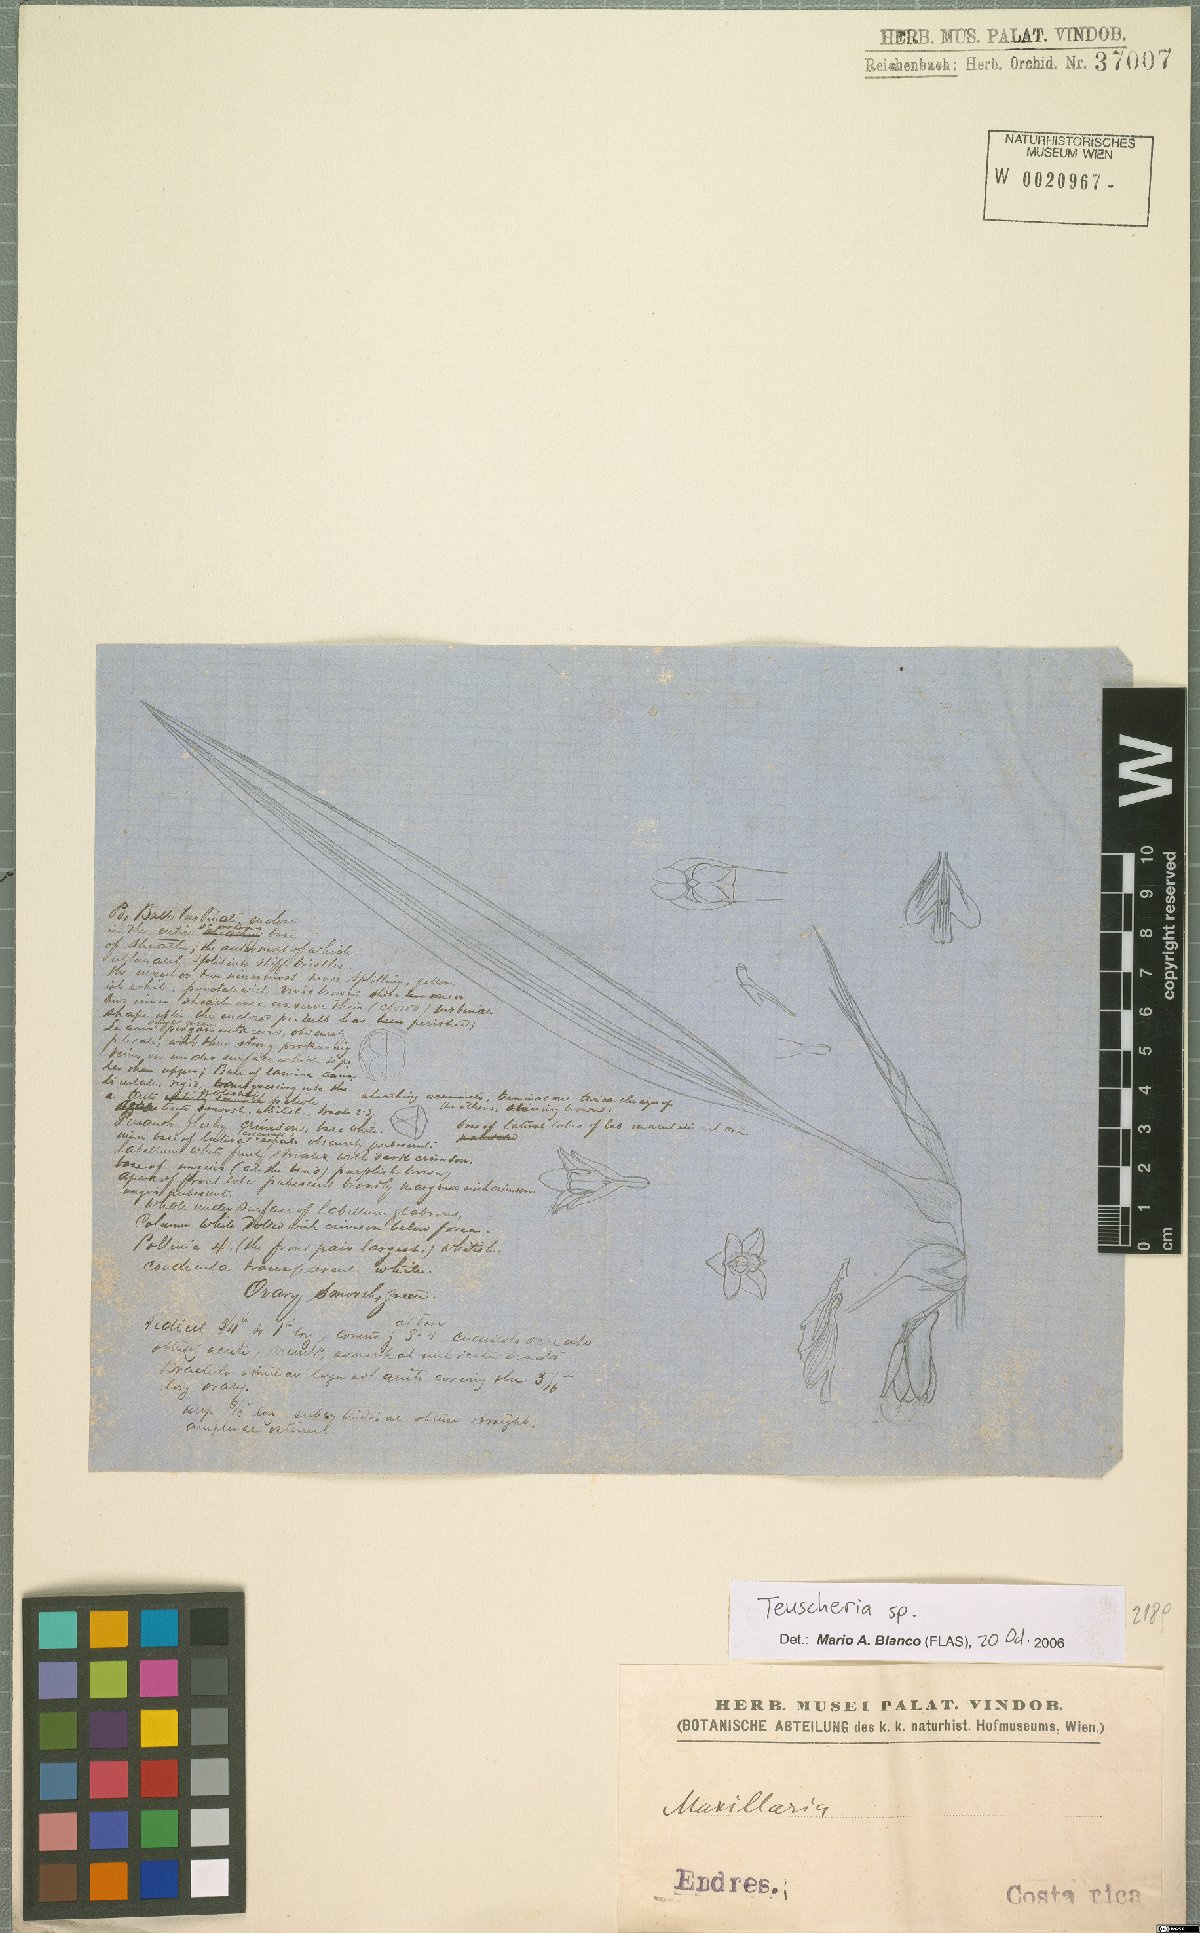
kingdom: Plantae
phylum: Tracheophyta
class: Liliopsida
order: Asparagales
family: Orchidaceae
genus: Teuscheria
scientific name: Teuscheria
